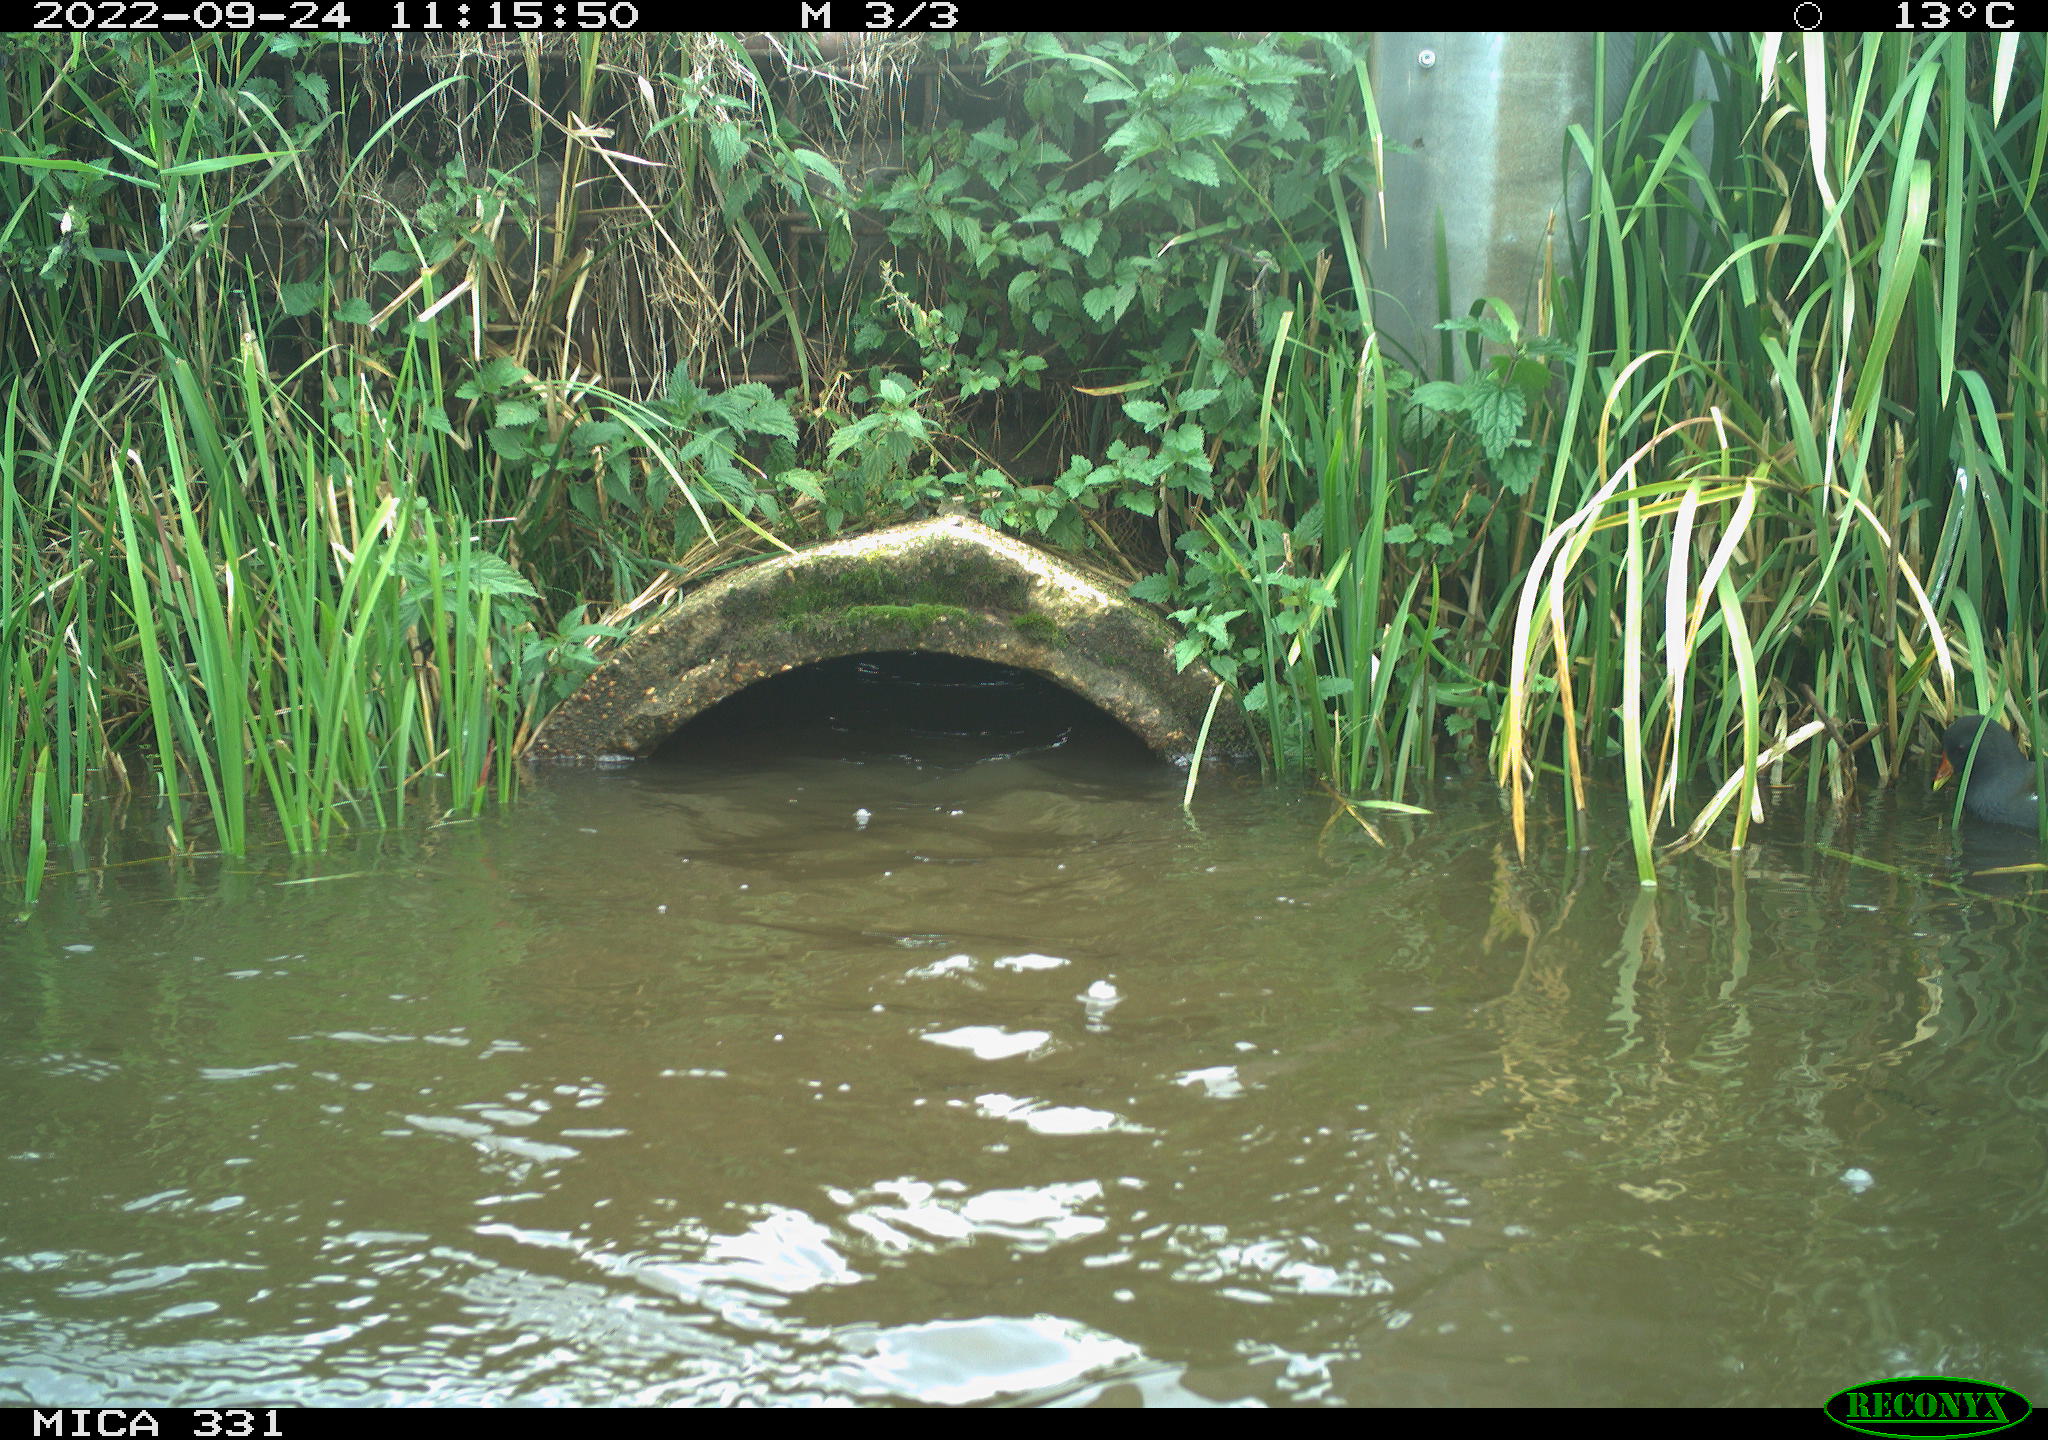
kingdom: Animalia
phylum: Chordata
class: Aves
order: Gruiformes
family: Rallidae
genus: Gallinula
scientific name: Gallinula chloropus
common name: Common moorhen
